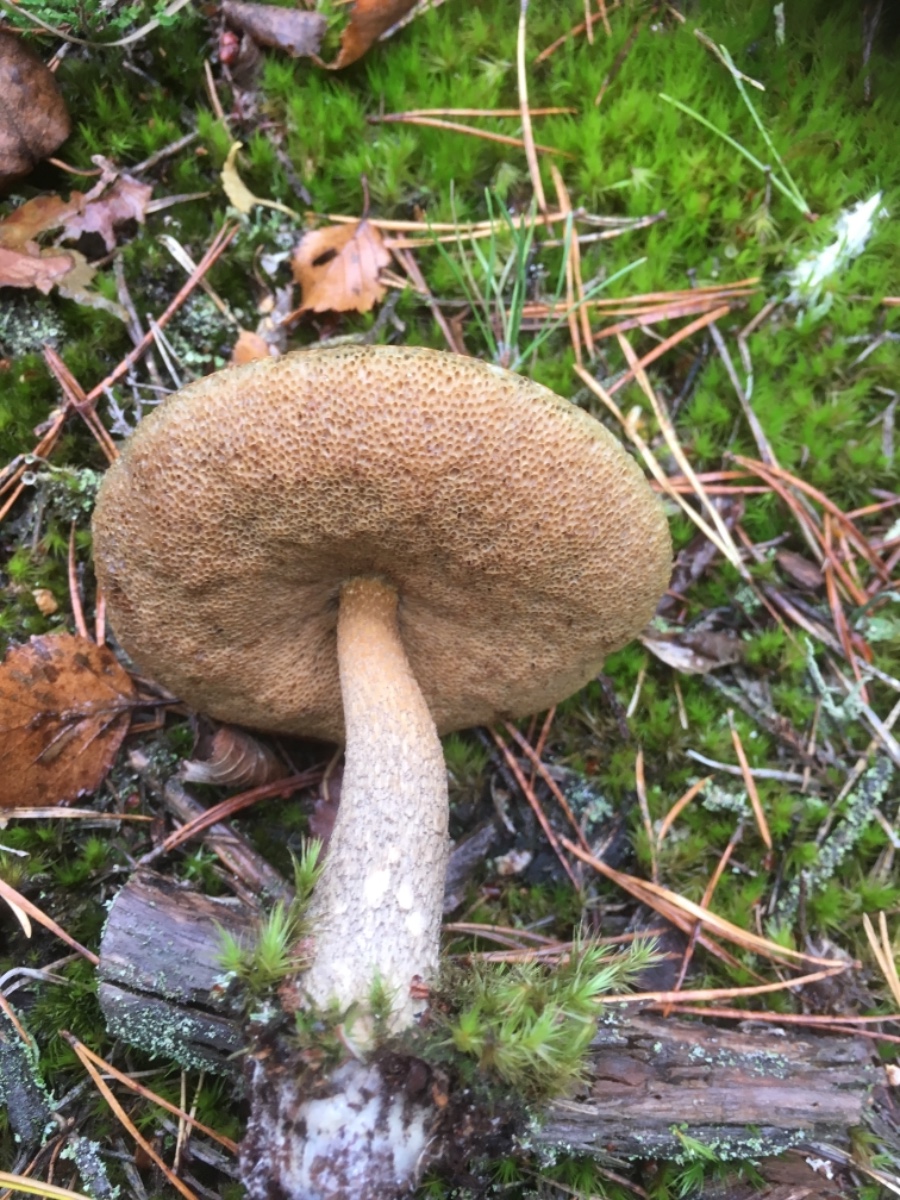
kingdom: Fungi
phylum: Basidiomycota
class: Agaricomycetes
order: Boletales
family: Boletaceae
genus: Leccinum
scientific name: Leccinum scabrum
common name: brun skælrørhat
